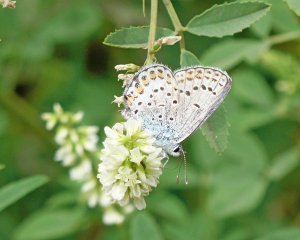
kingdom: Animalia
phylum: Arthropoda
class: Insecta
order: Lepidoptera
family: Lycaenidae
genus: Lycaeides
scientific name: Lycaeides melissa
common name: Melissa Blue
